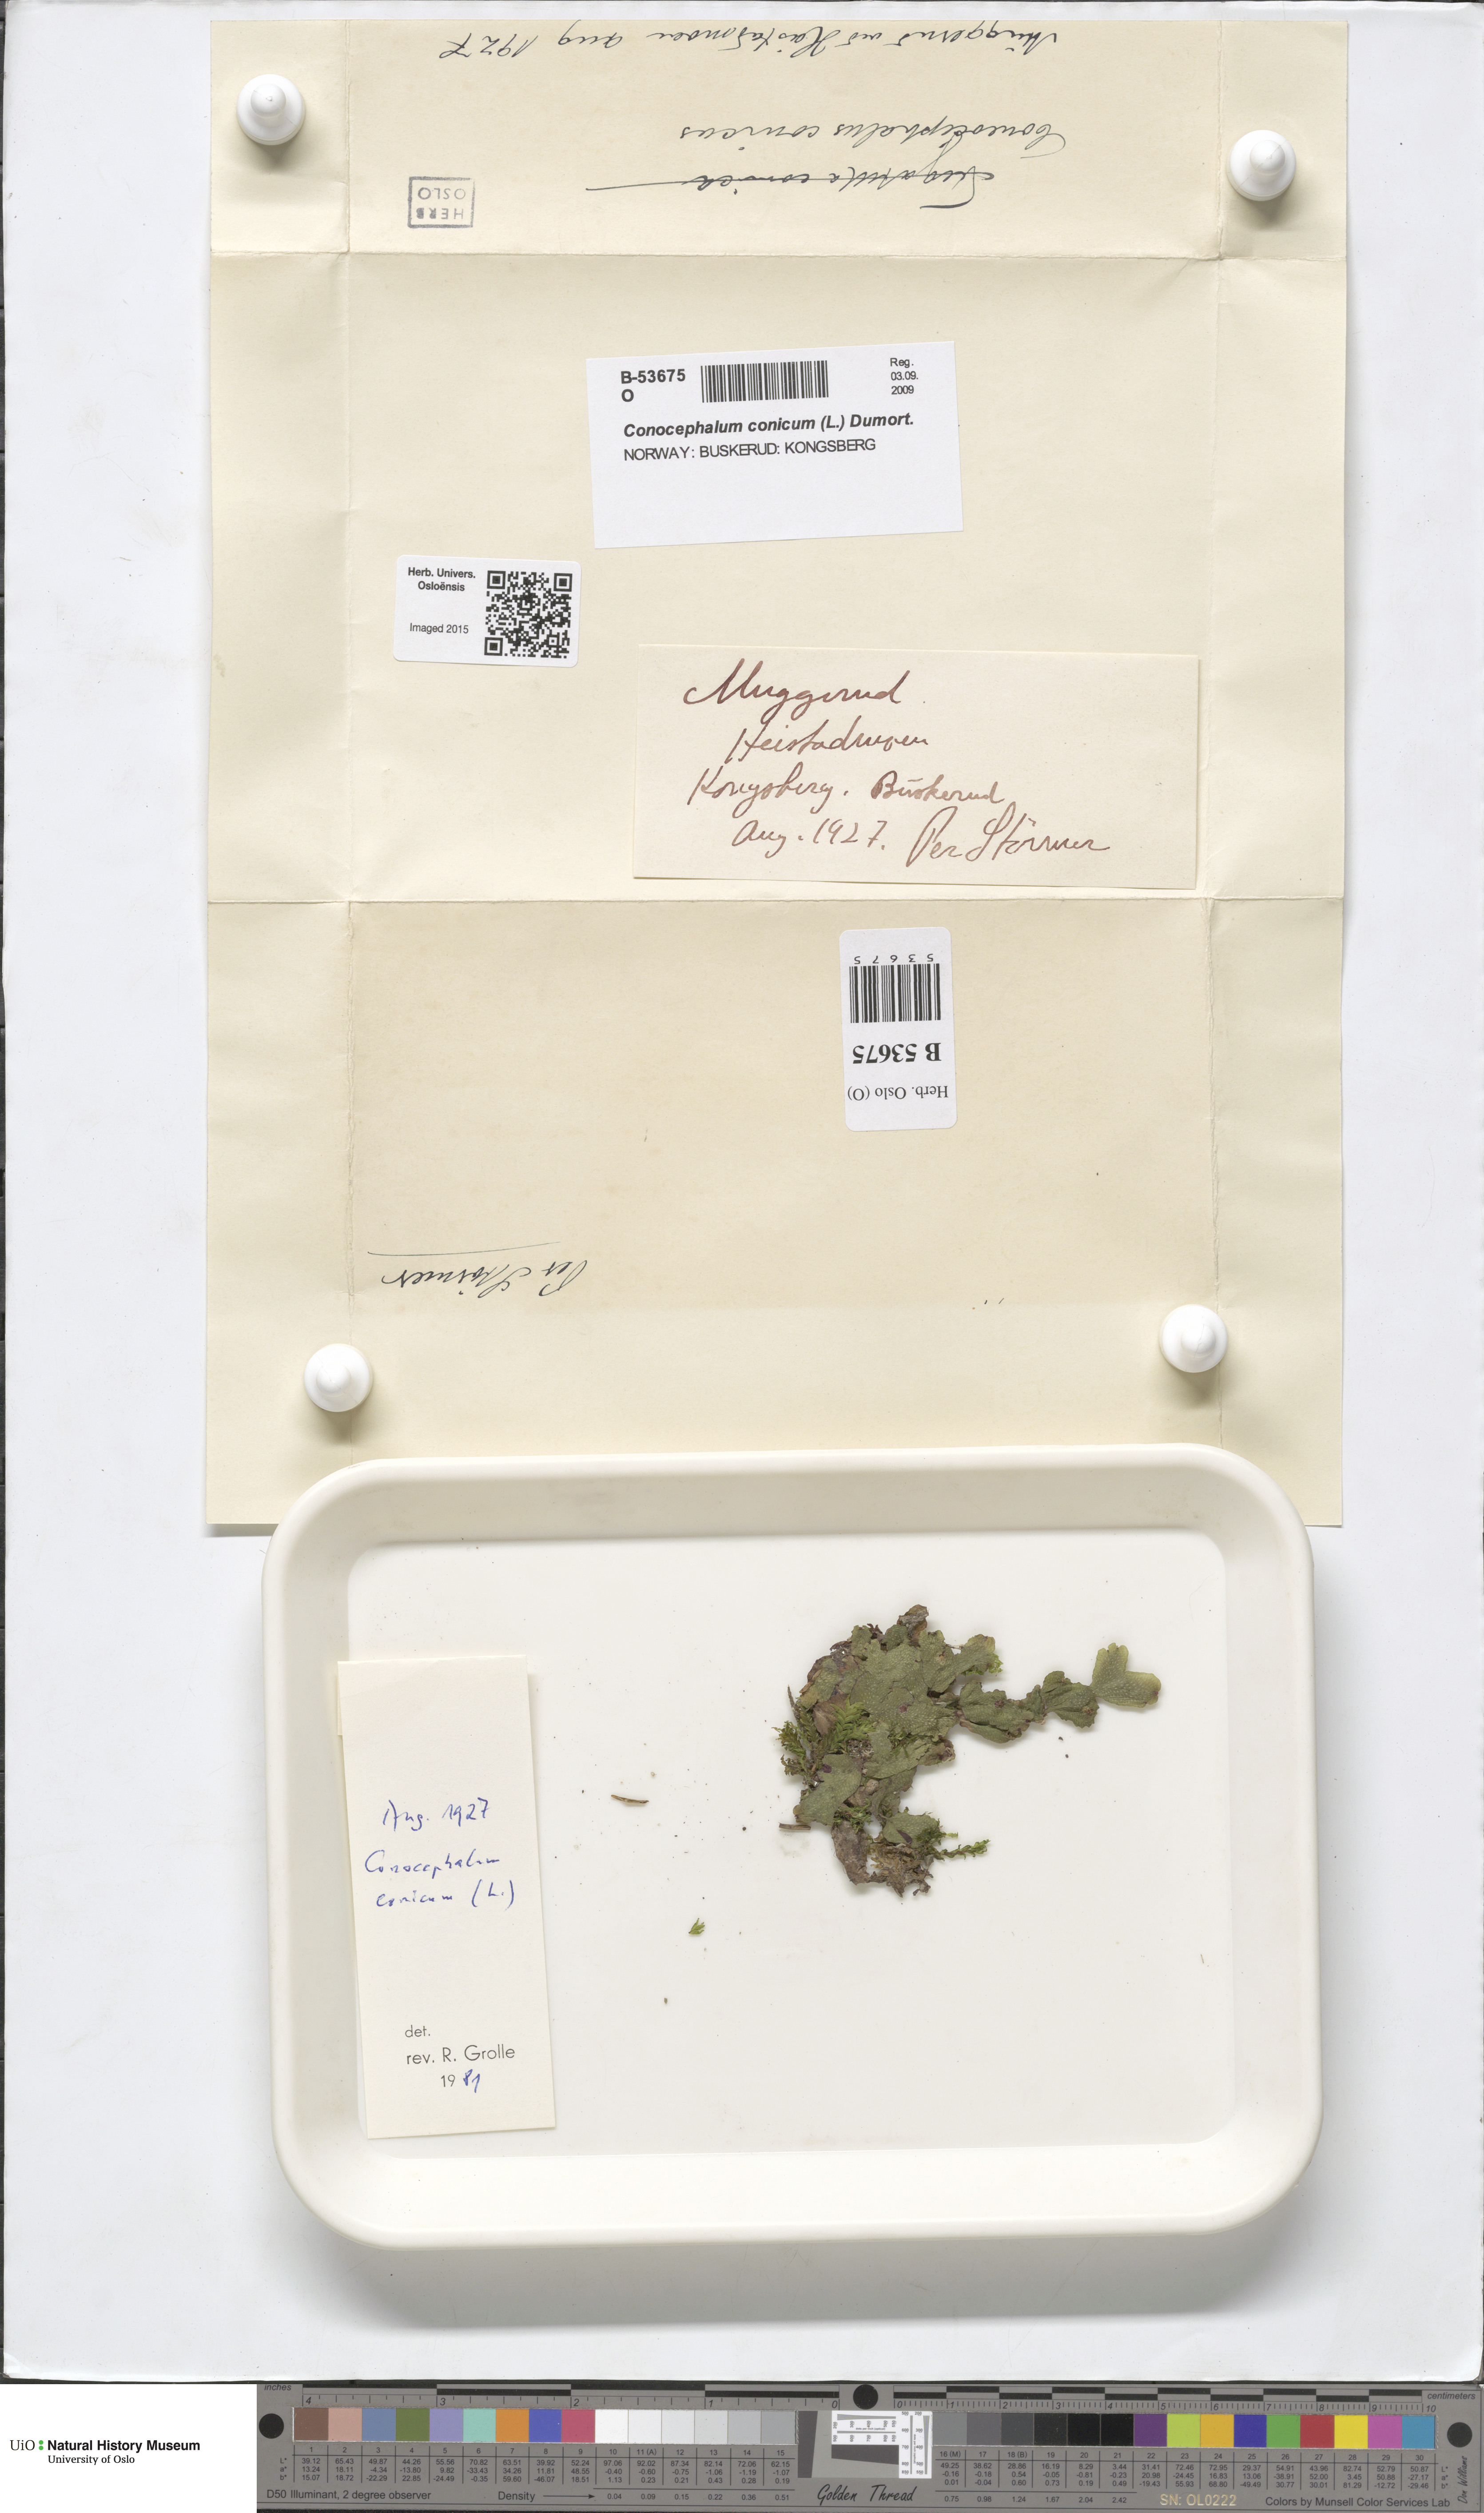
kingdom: Plantae
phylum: Marchantiophyta
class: Marchantiopsida
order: Marchantiales
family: Conocephalaceae
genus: Conocephalum
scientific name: Conocephalum conicum
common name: Great scented liverwort
